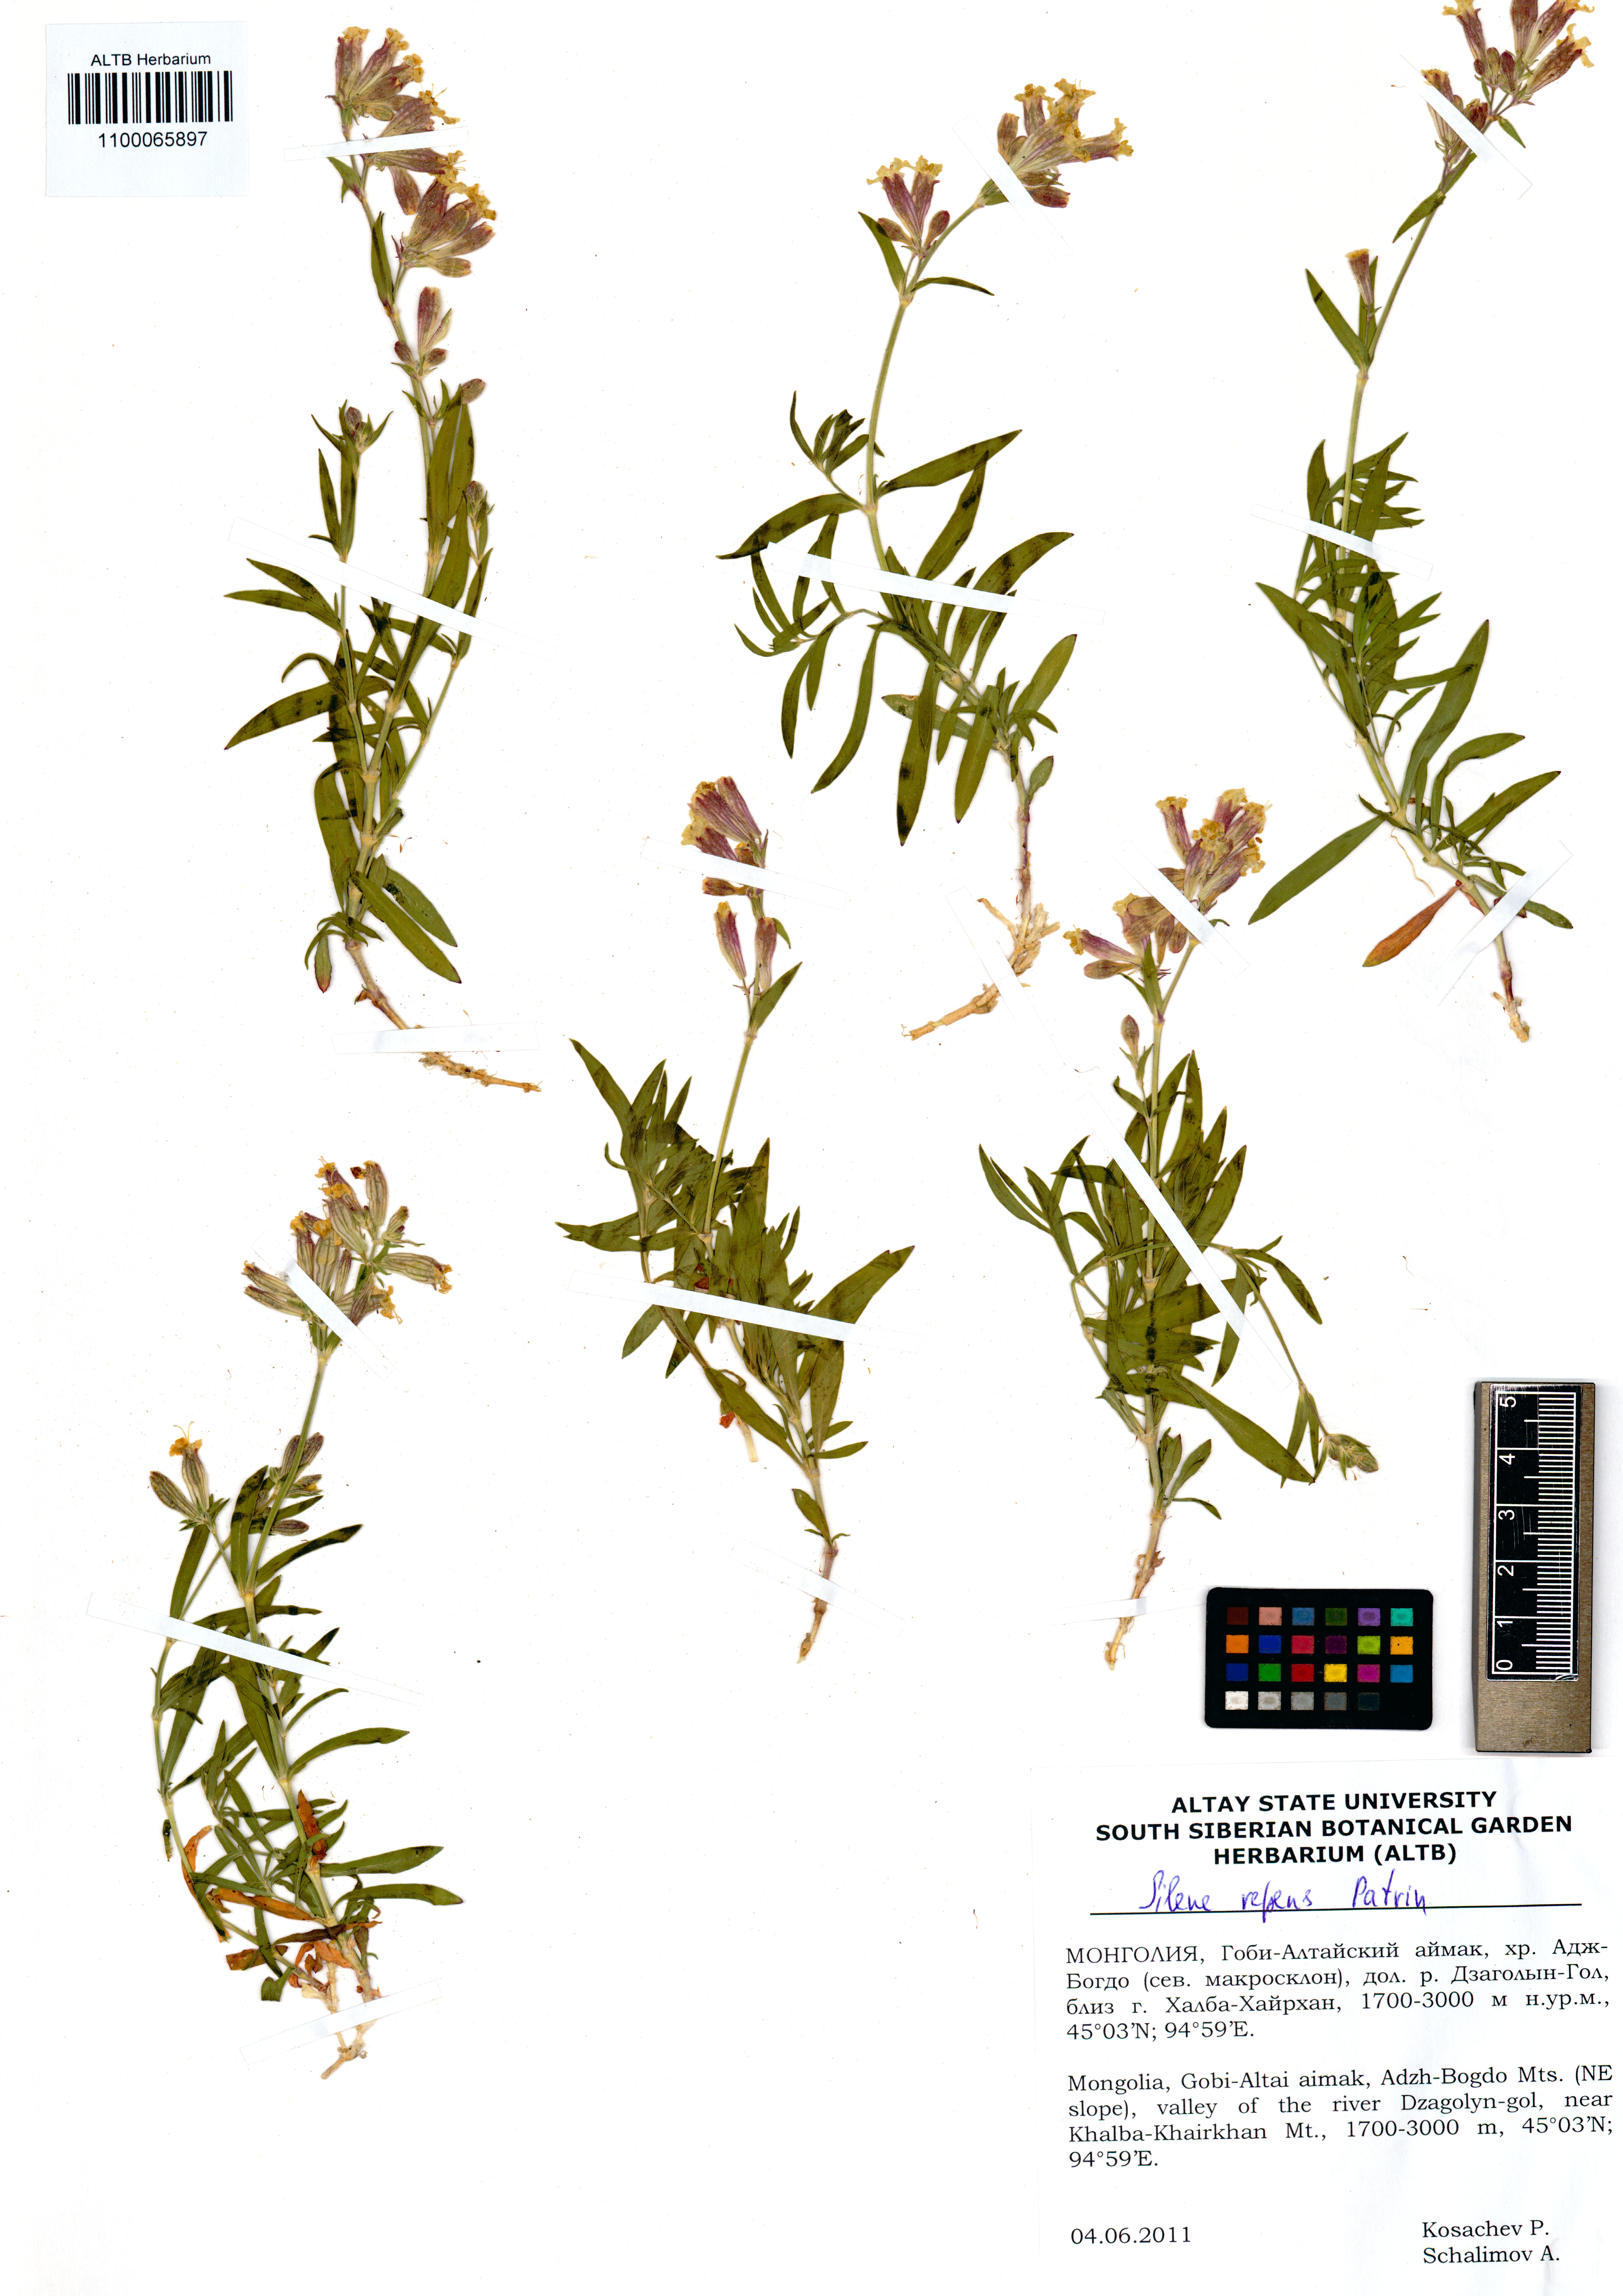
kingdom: Plantae
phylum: Tracheophyta
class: Magnoliopsida
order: Caryophyllales
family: Caryophyllaceae
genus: Silene
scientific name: Silene repens
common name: Pink campion
